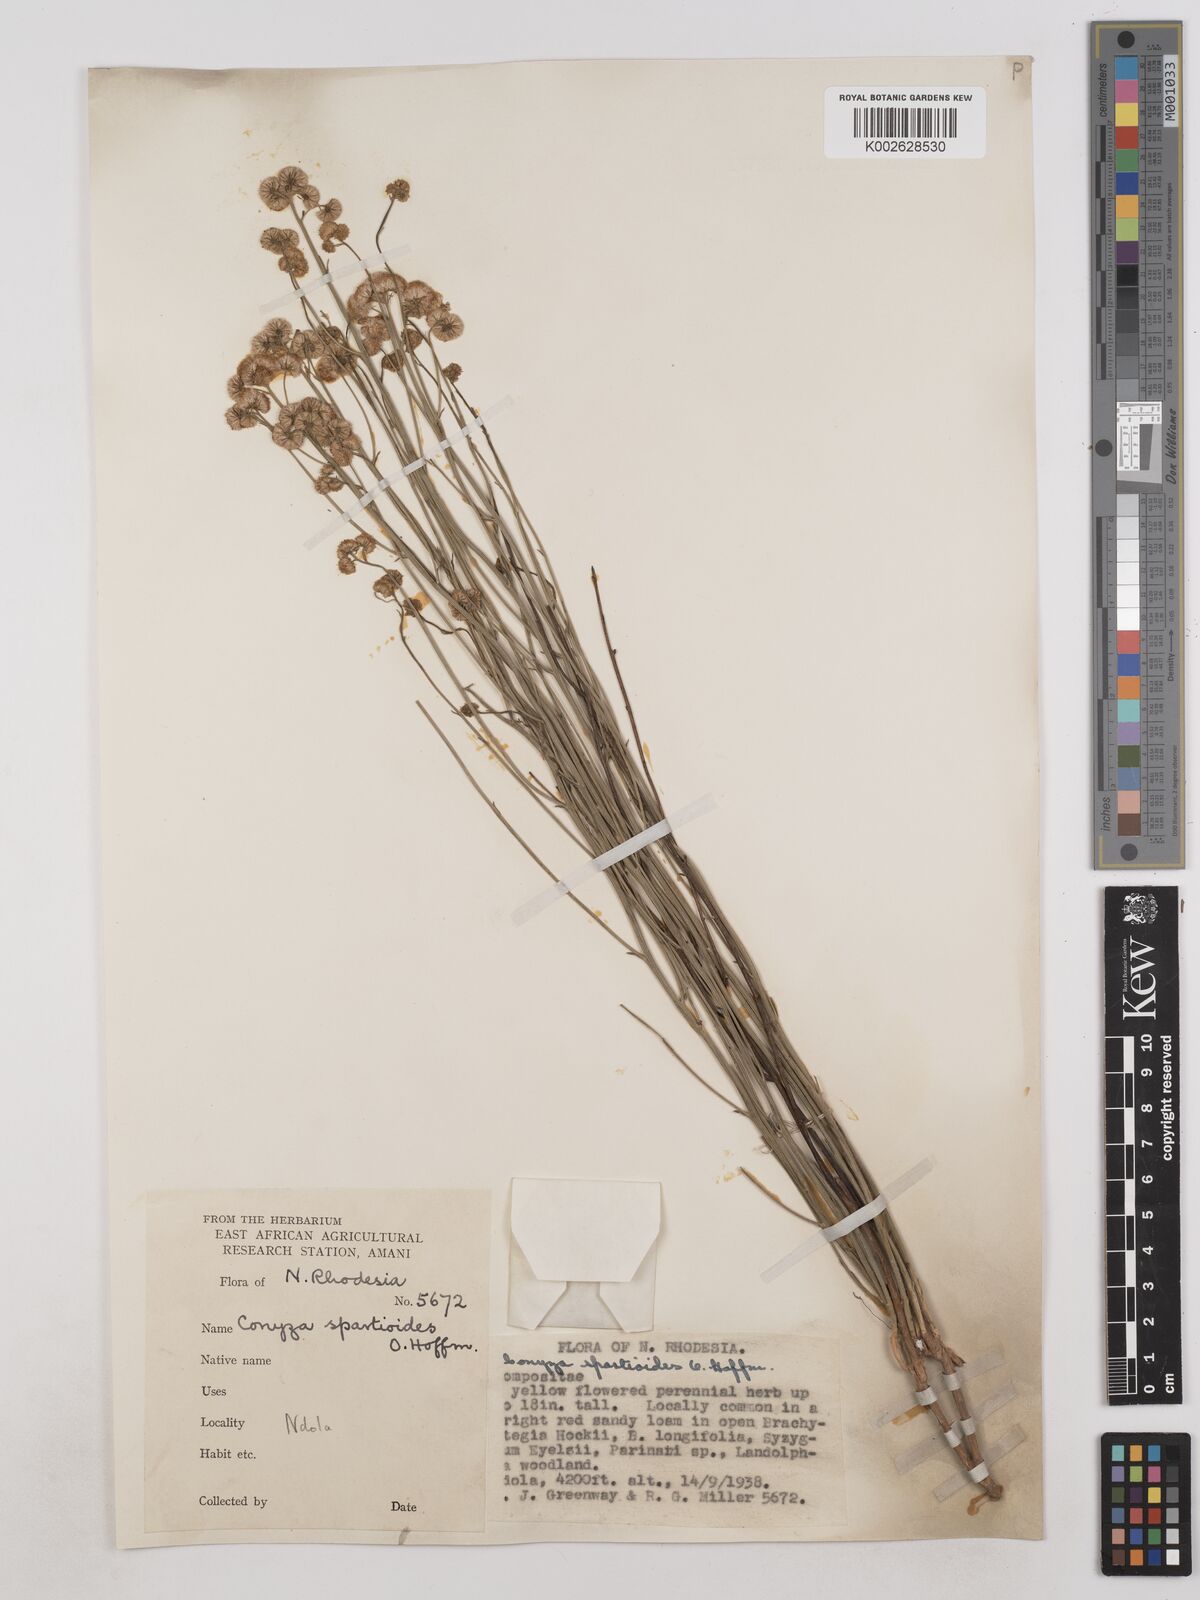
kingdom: Plantae
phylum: Tracheophyta
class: Magnoliopsida
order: Asterales
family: Asteraceae
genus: Nidorella
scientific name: Nidorella spartioides
